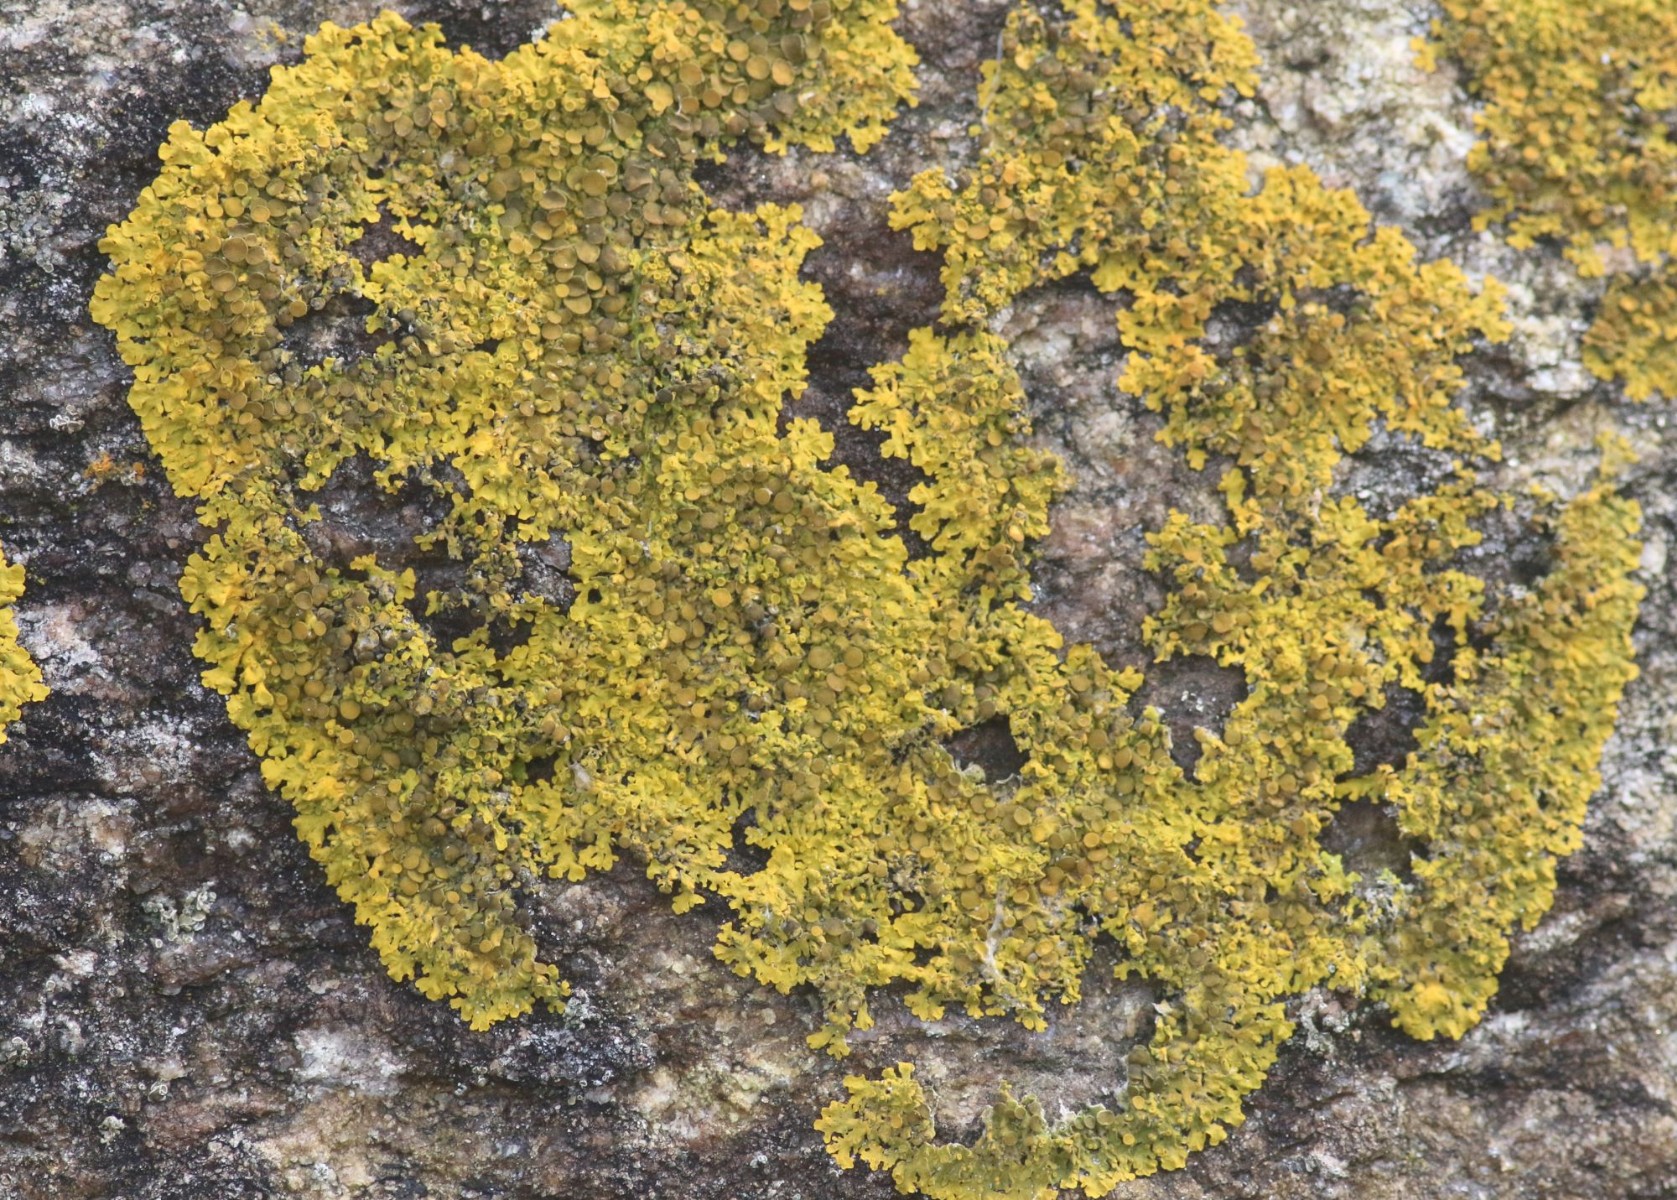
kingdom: Fungi
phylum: Ascomycota
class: Lecanoromycetes
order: Teloschistales
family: Teloschistaceae
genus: Xanthoria
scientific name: Xanthoria parietina
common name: almindelig væggelav
